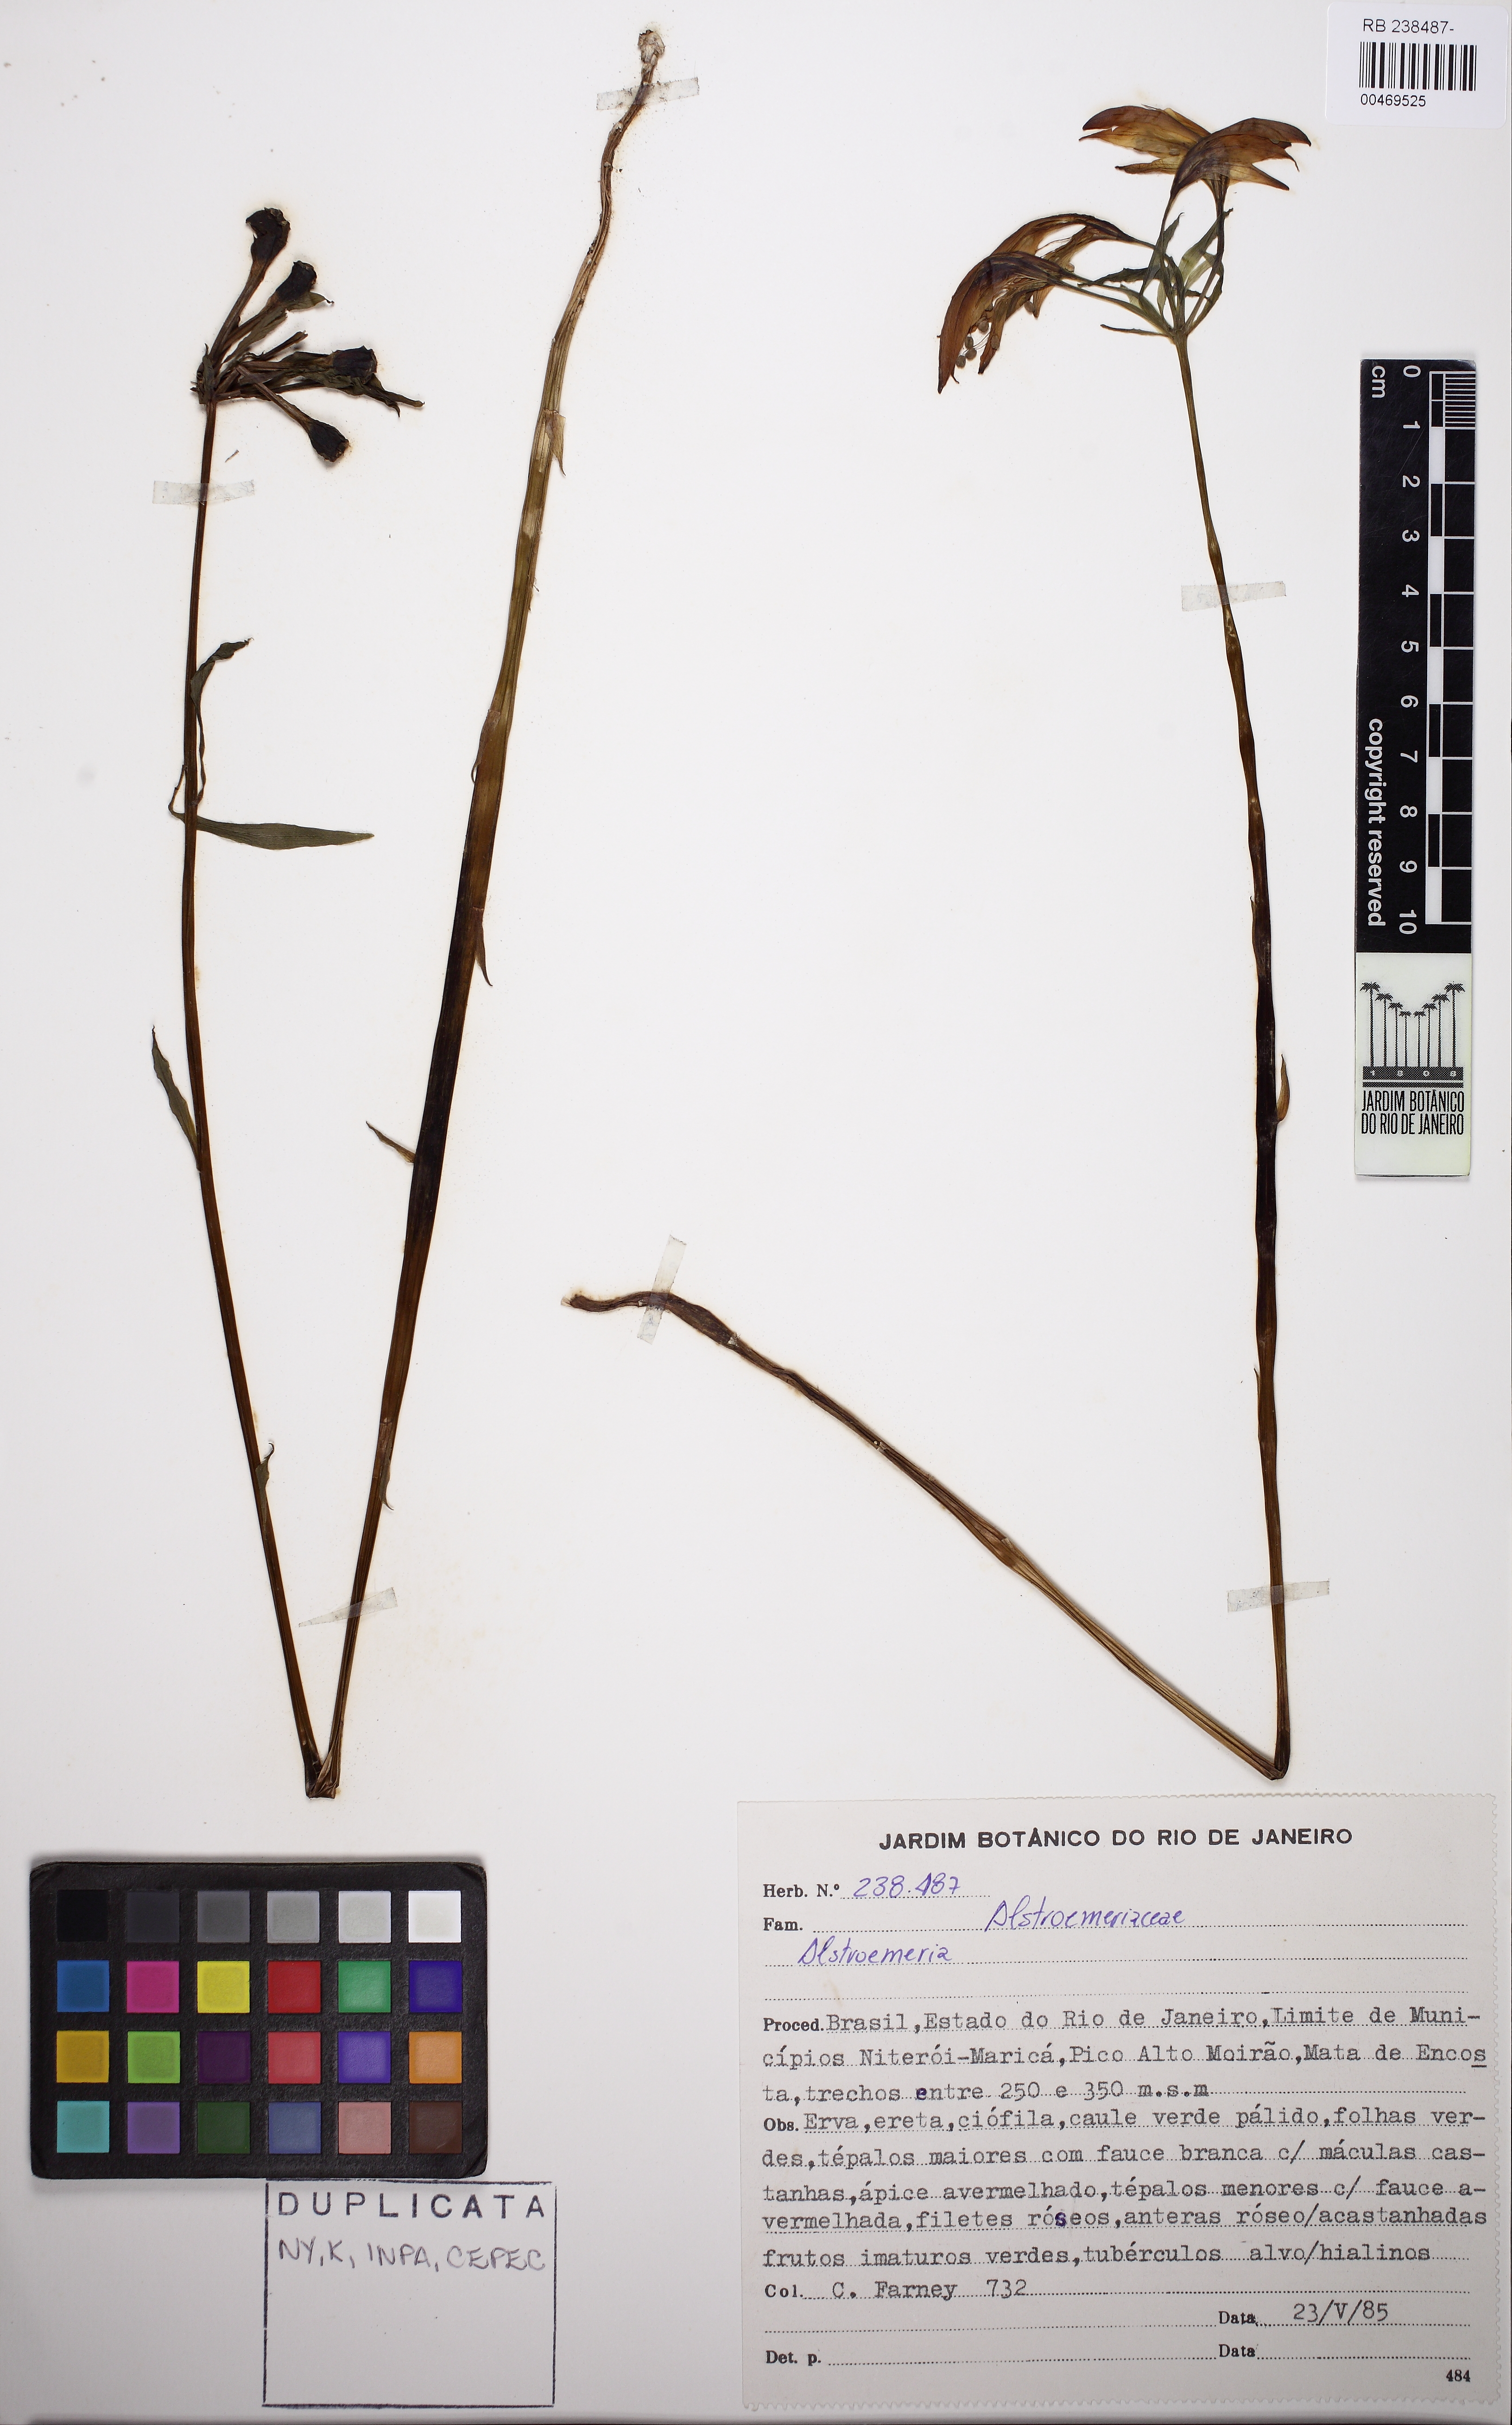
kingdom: Plantae
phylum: Tracheophyta
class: Liliopsida
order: Liliales
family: Alstroemeriaceae
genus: Alstroemeria
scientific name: Alstroemeria
